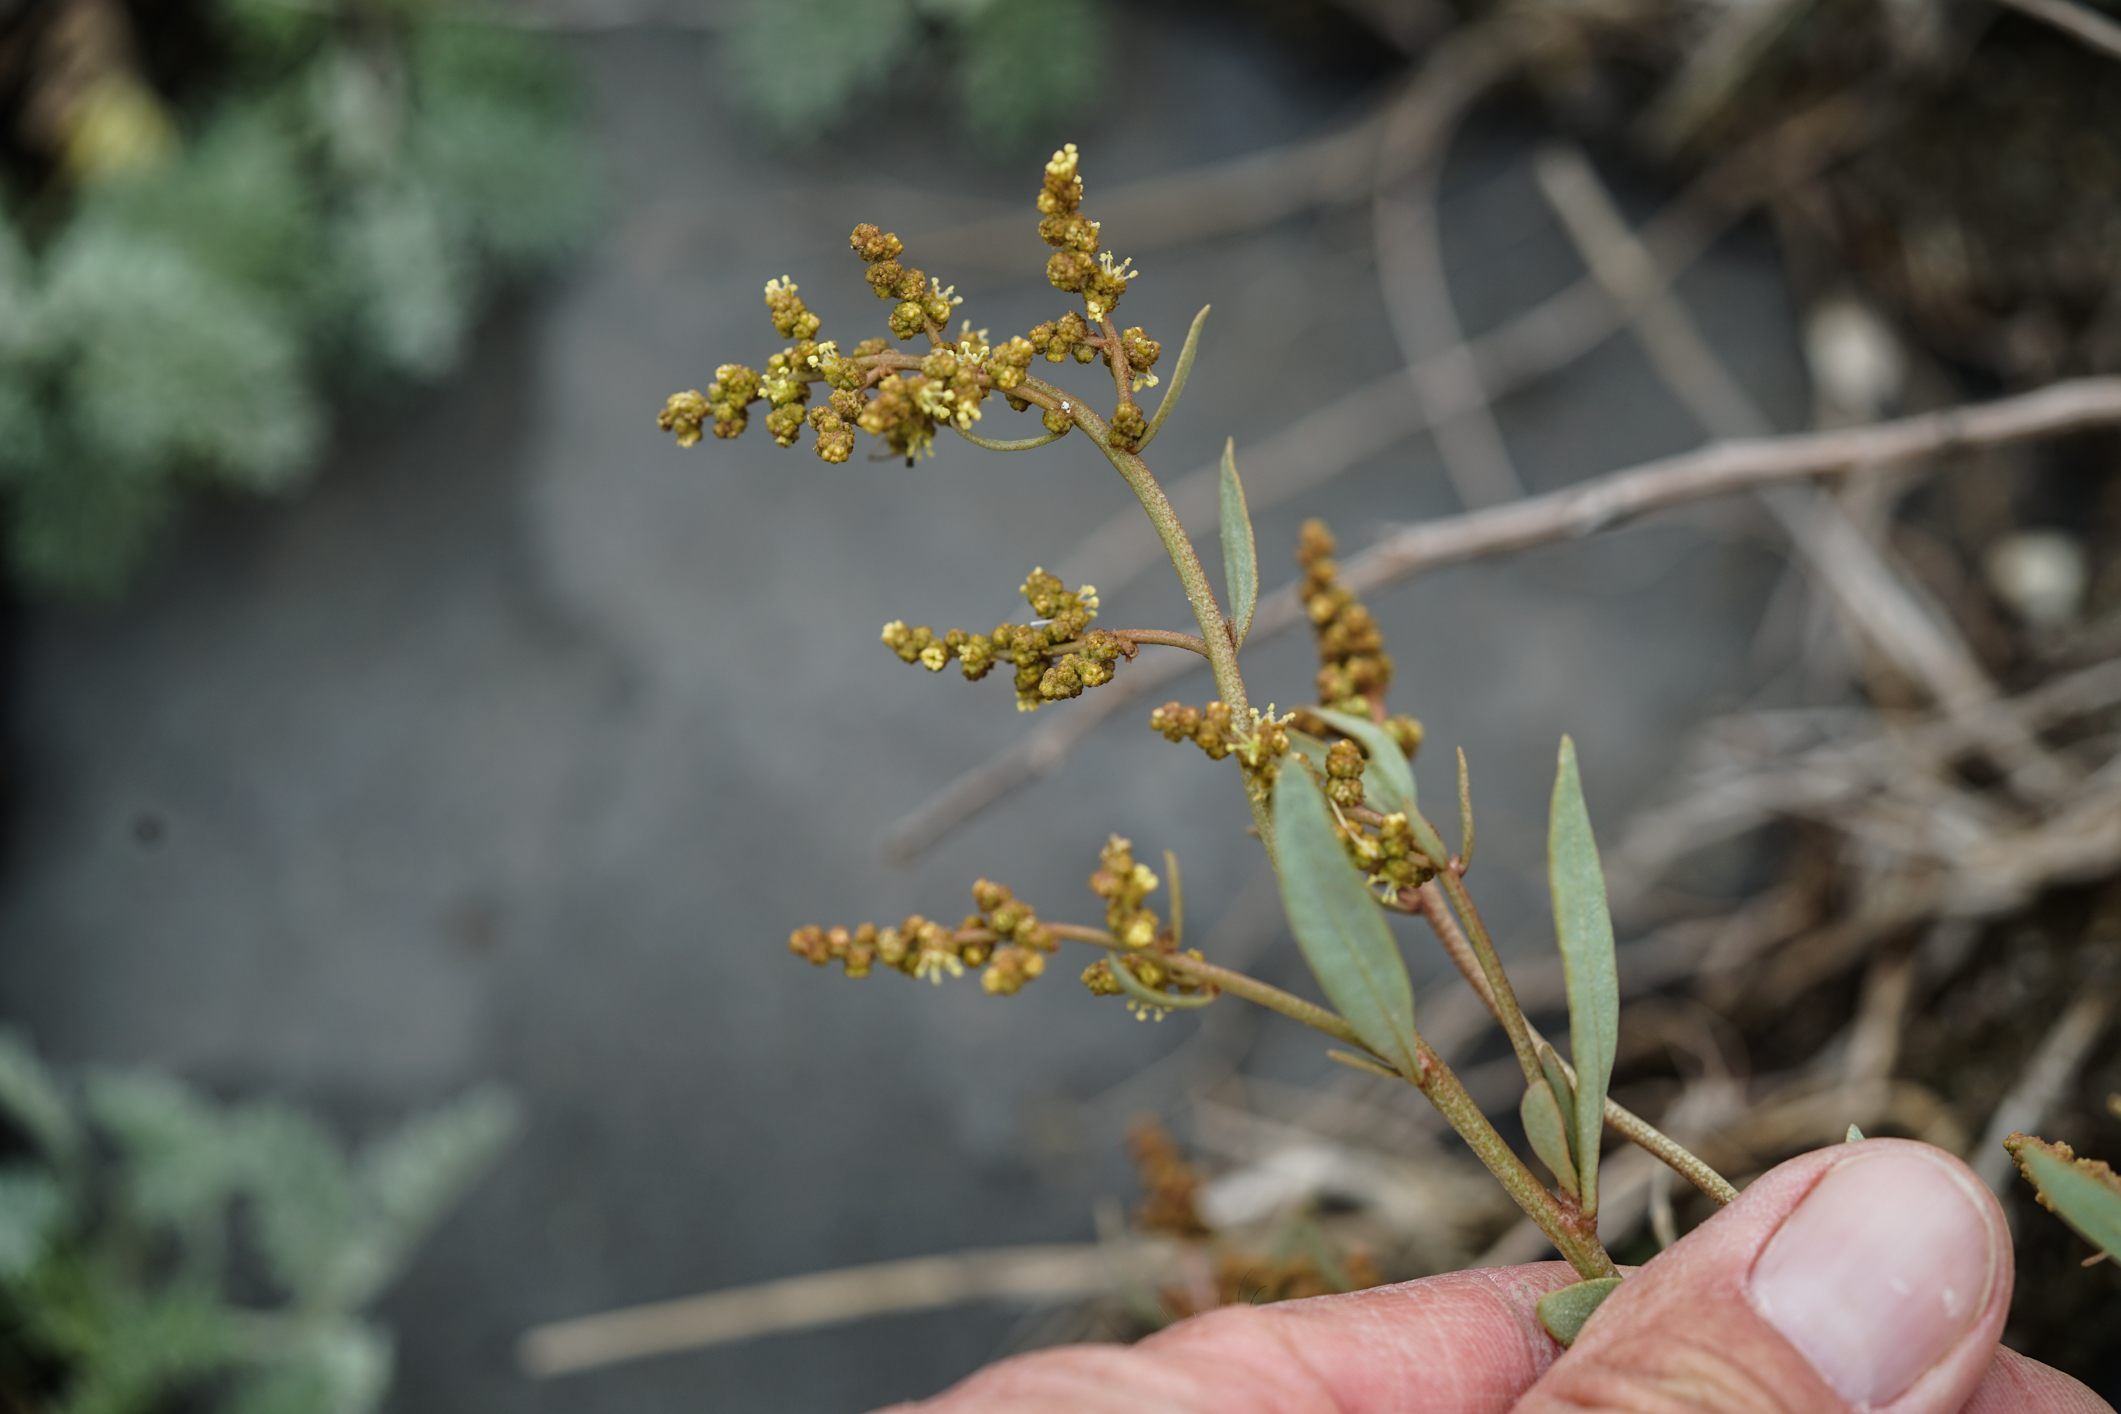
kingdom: Plantae
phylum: Tracheophyta
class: Magnoliopsida
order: Caryophyllales
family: Amaranthaceae
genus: Halimione
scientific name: Halimione portulacoides
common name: Sea-purslane
